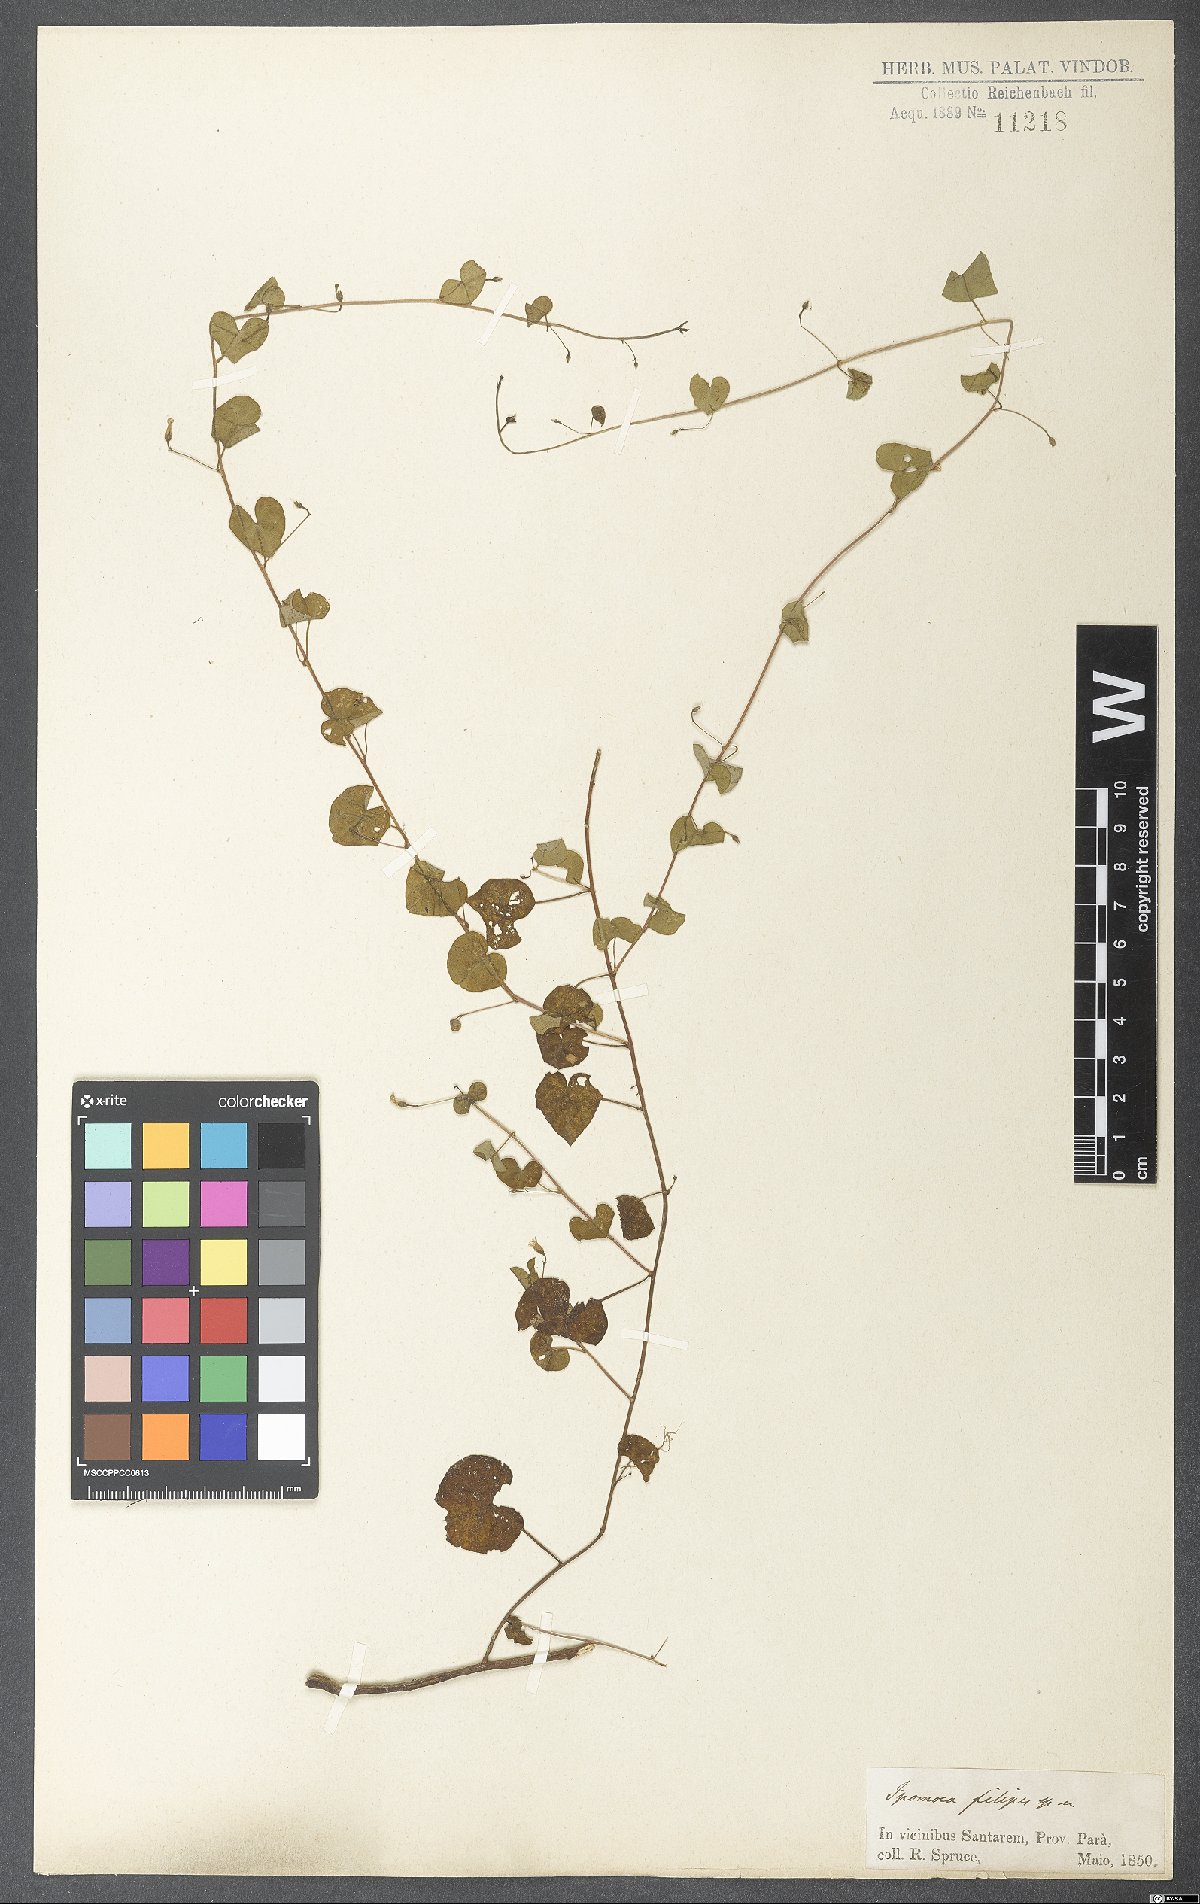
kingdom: Plantae
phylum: Tracheophyta
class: Magnoliopsida
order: Solanales
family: Convolvulaceae
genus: Ipomoea
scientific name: Ipomoea minutiflora
